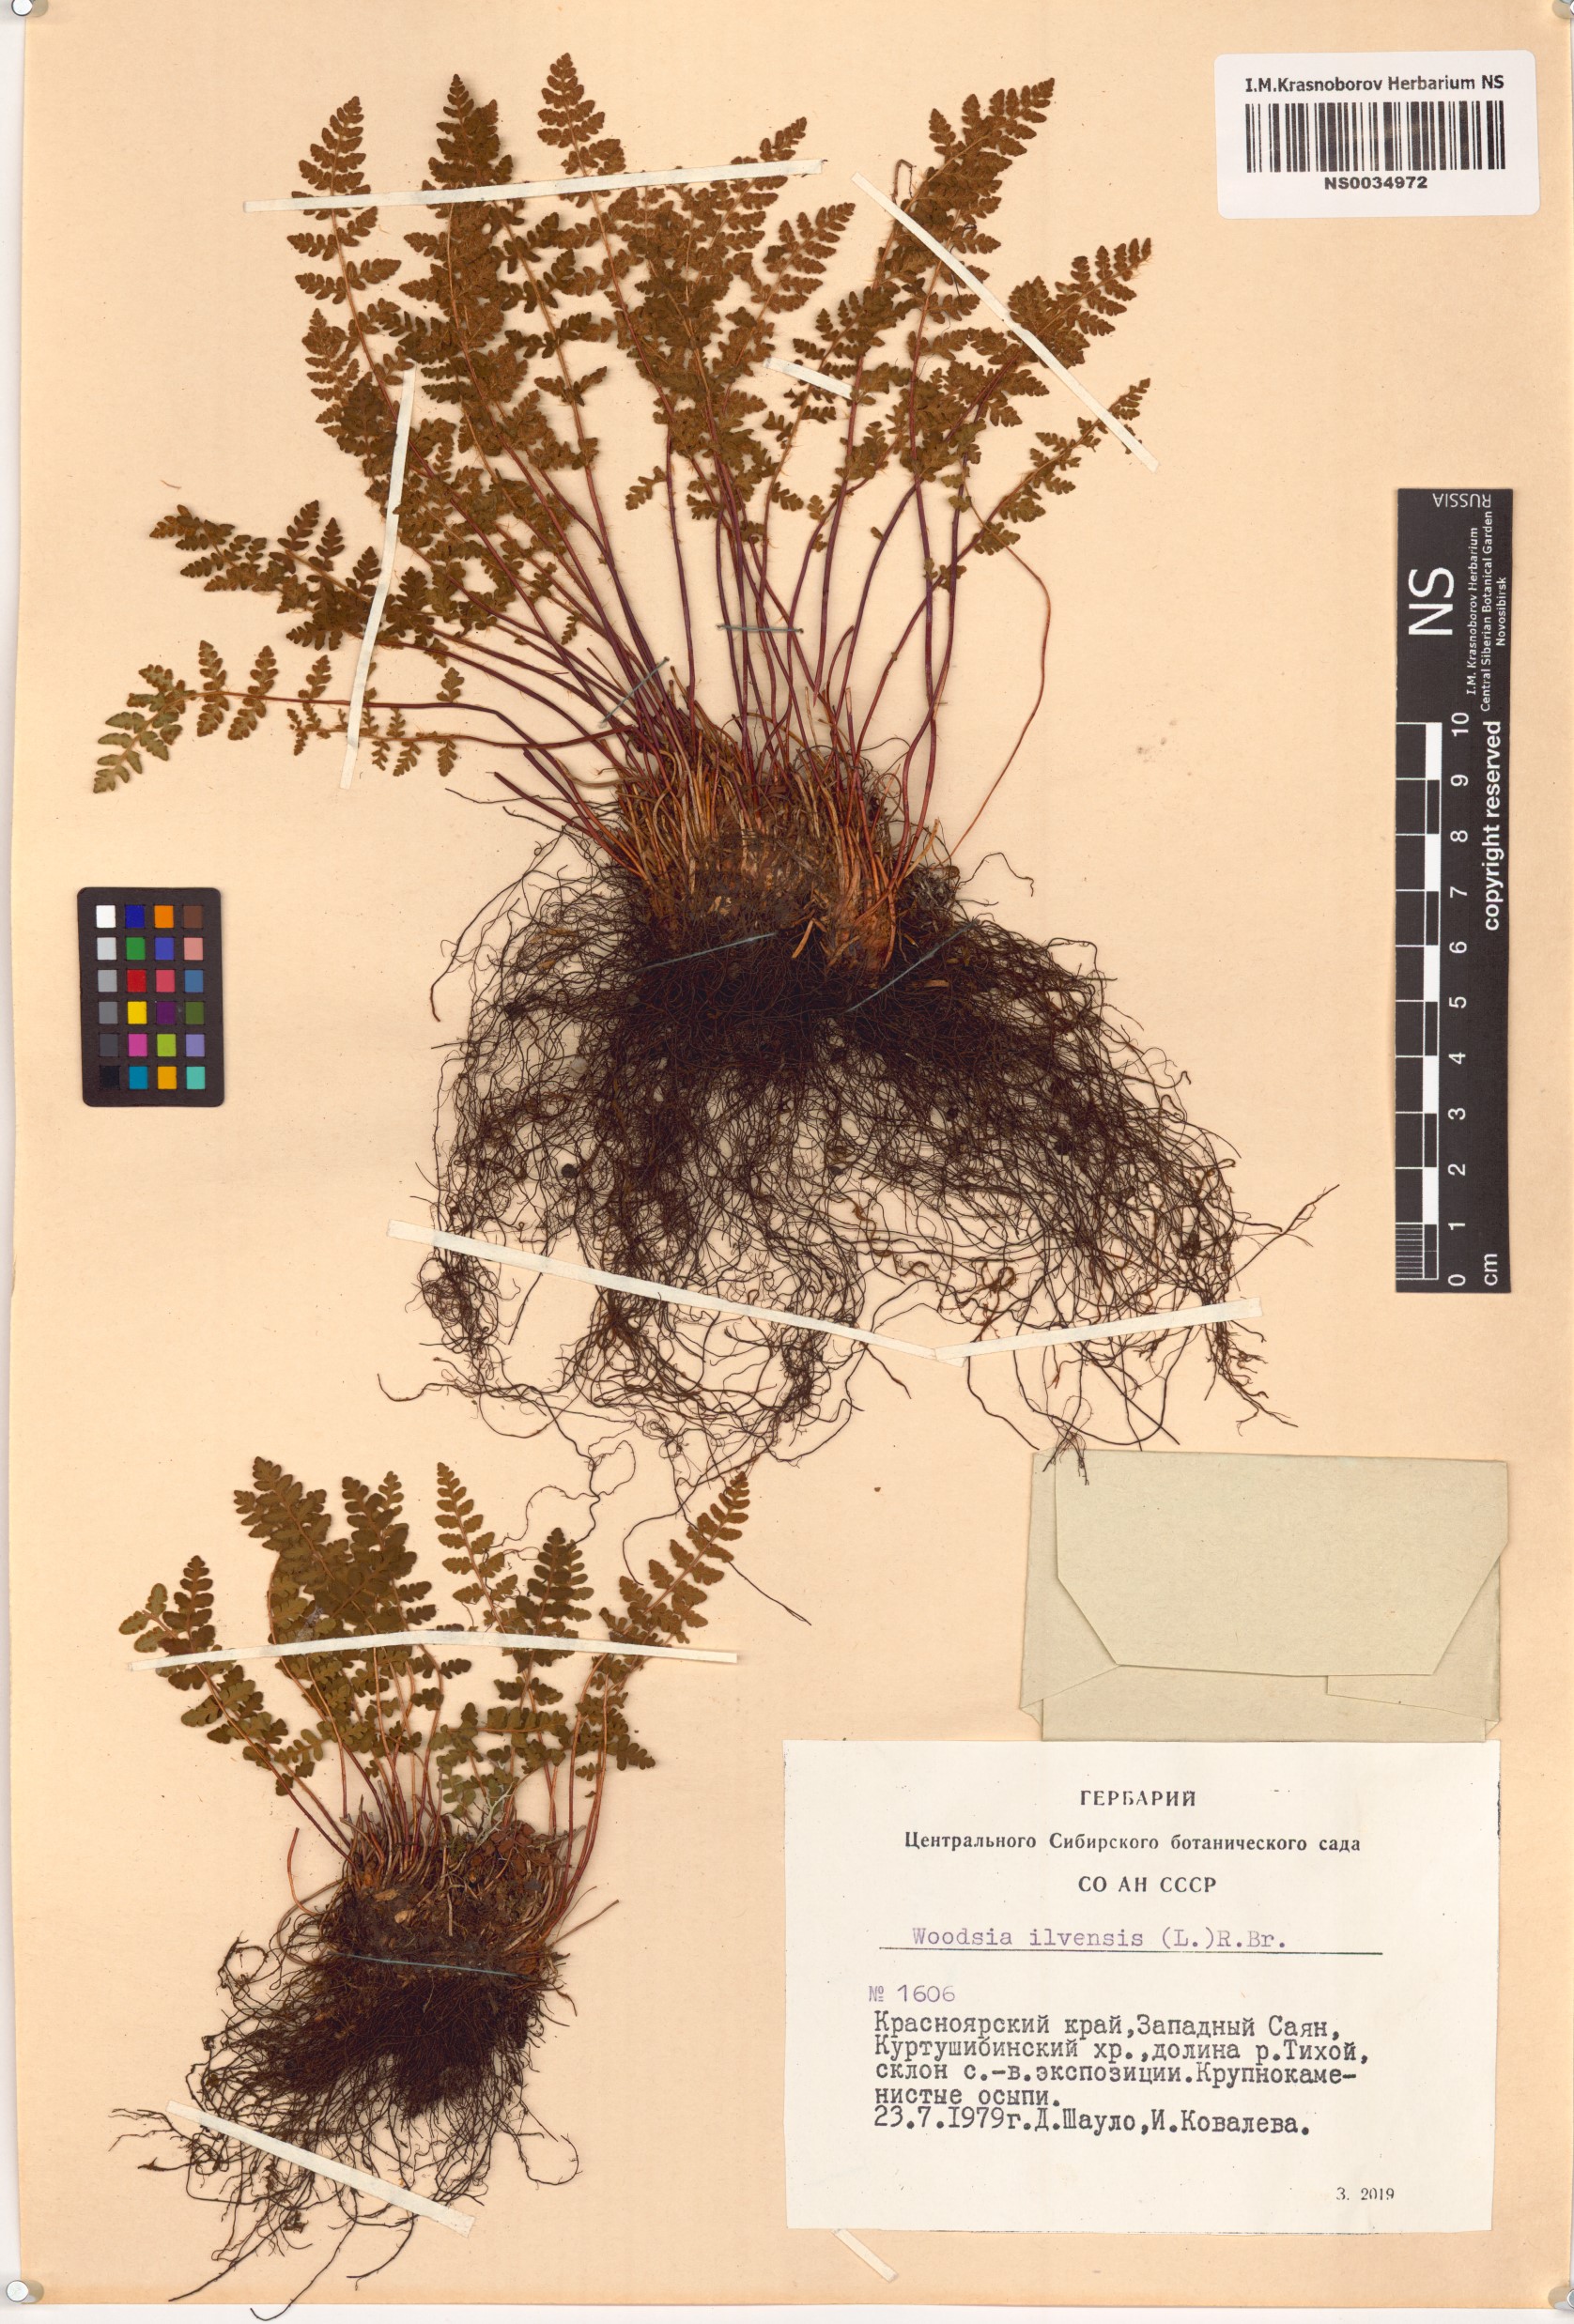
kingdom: Plantae
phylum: Tracheophyta
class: Polypodiopsida
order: Polypodiales
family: Woodsiaceae
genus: Woodsia
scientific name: Woodsia ilvensis
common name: Fragrant woodsia
